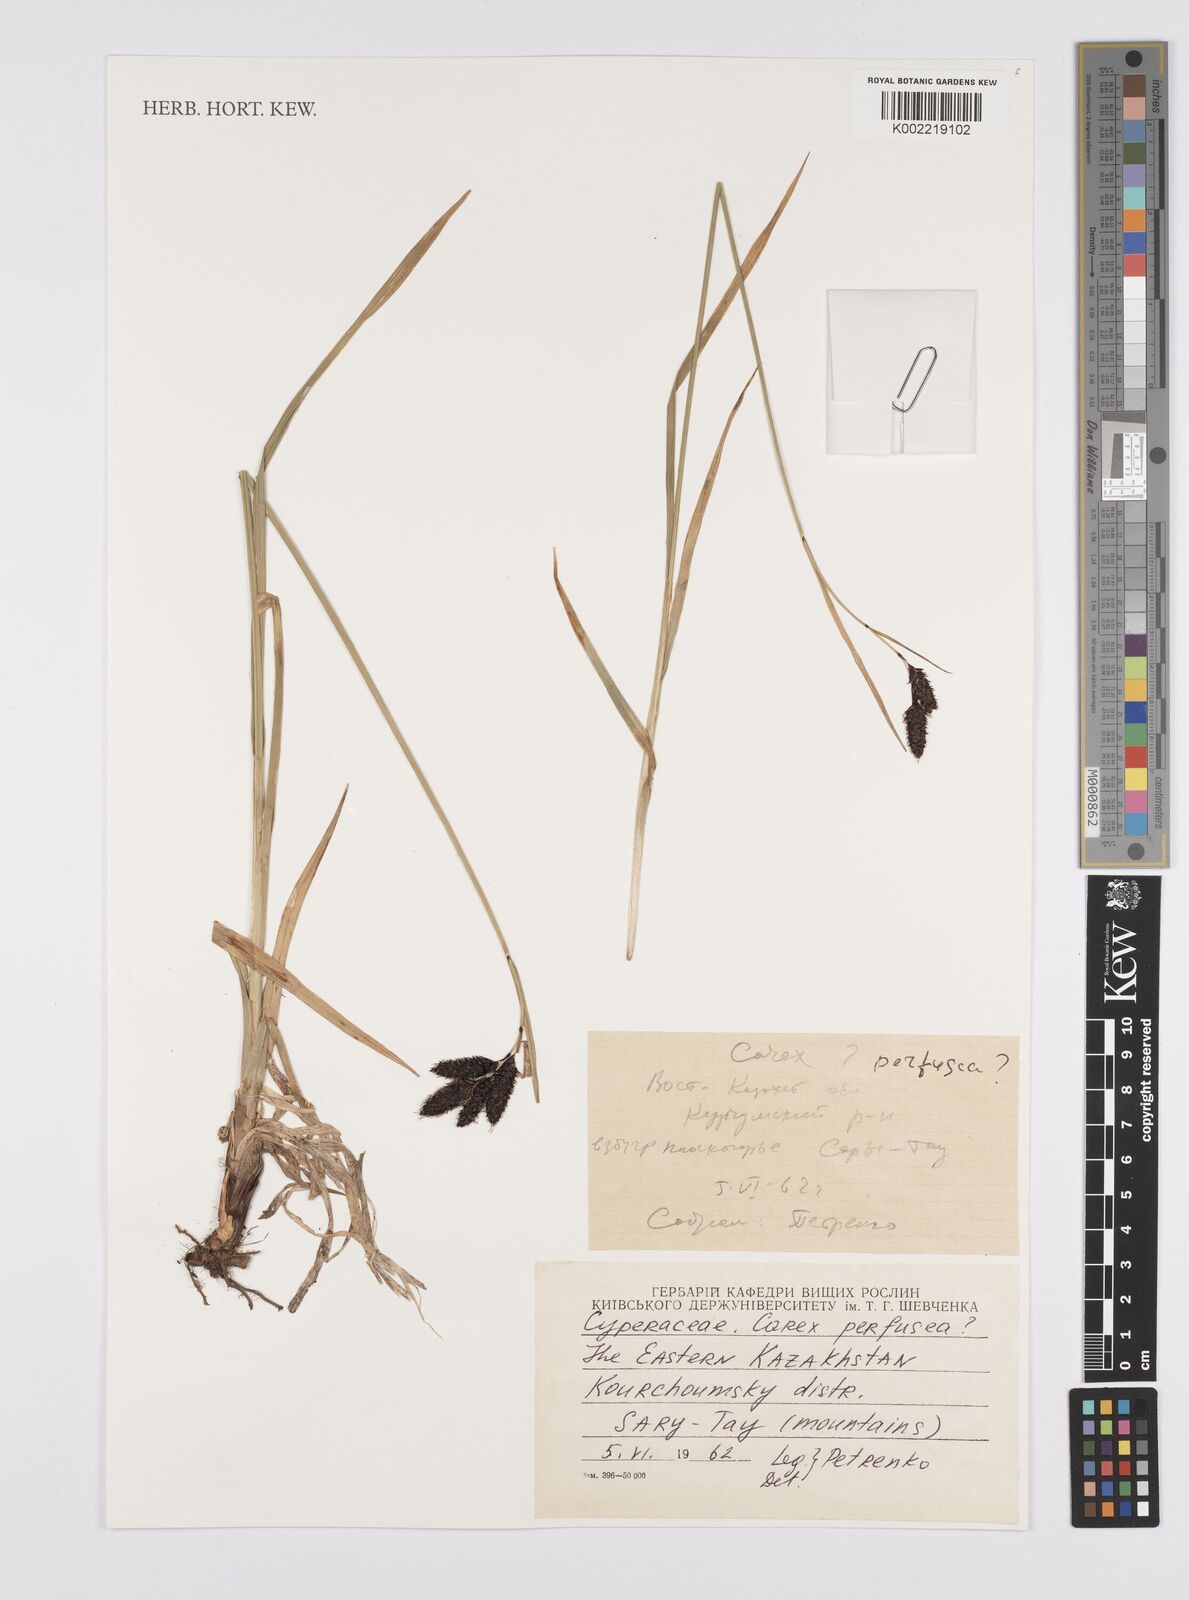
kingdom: Plantae
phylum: Tracheophyta
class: Liliopsida
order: Poales
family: Cyperaceae
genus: Carex
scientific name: Carex aterrima
